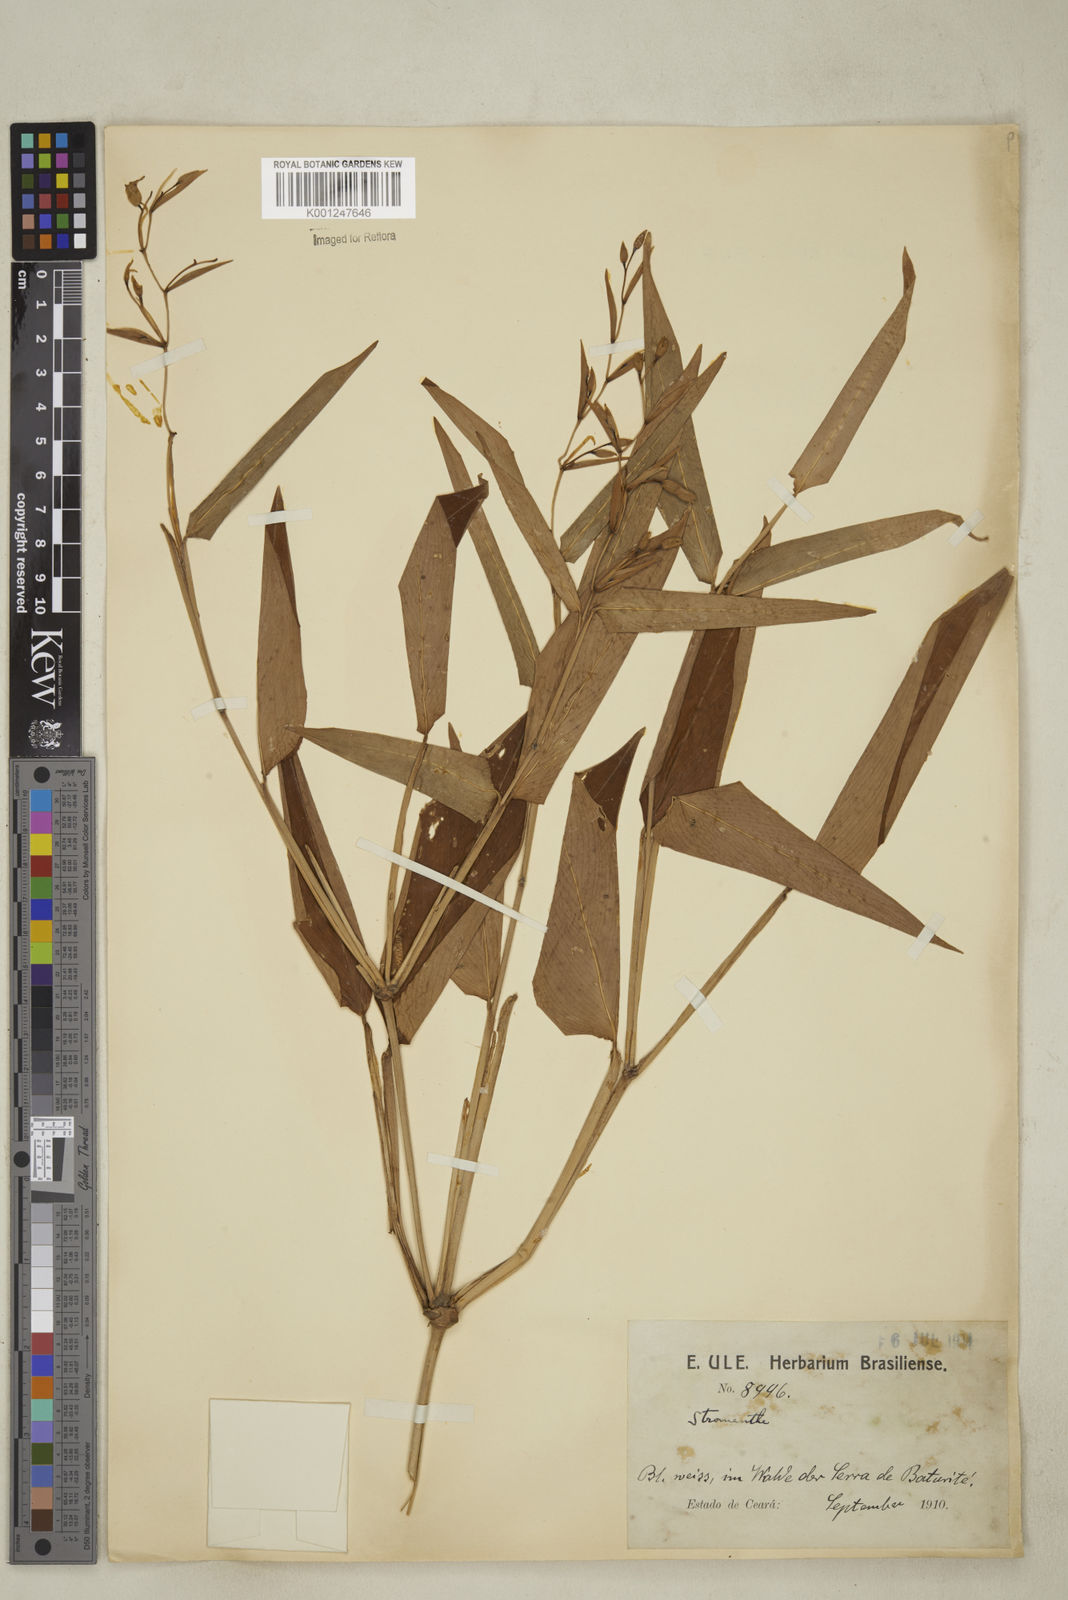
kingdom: Plantae
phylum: Tracheophyta
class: Liliopsida
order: Zingiberales
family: Marantaceae
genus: Stromanthe
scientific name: Stromanthe tonckat
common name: Stromanthe
